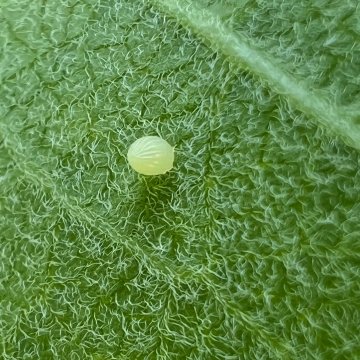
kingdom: Animalia
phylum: Arthropoda
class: Insecta
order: Lepidoptera
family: Nymphalidae
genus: Danaus
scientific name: Danaus plexippus
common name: Monarch
